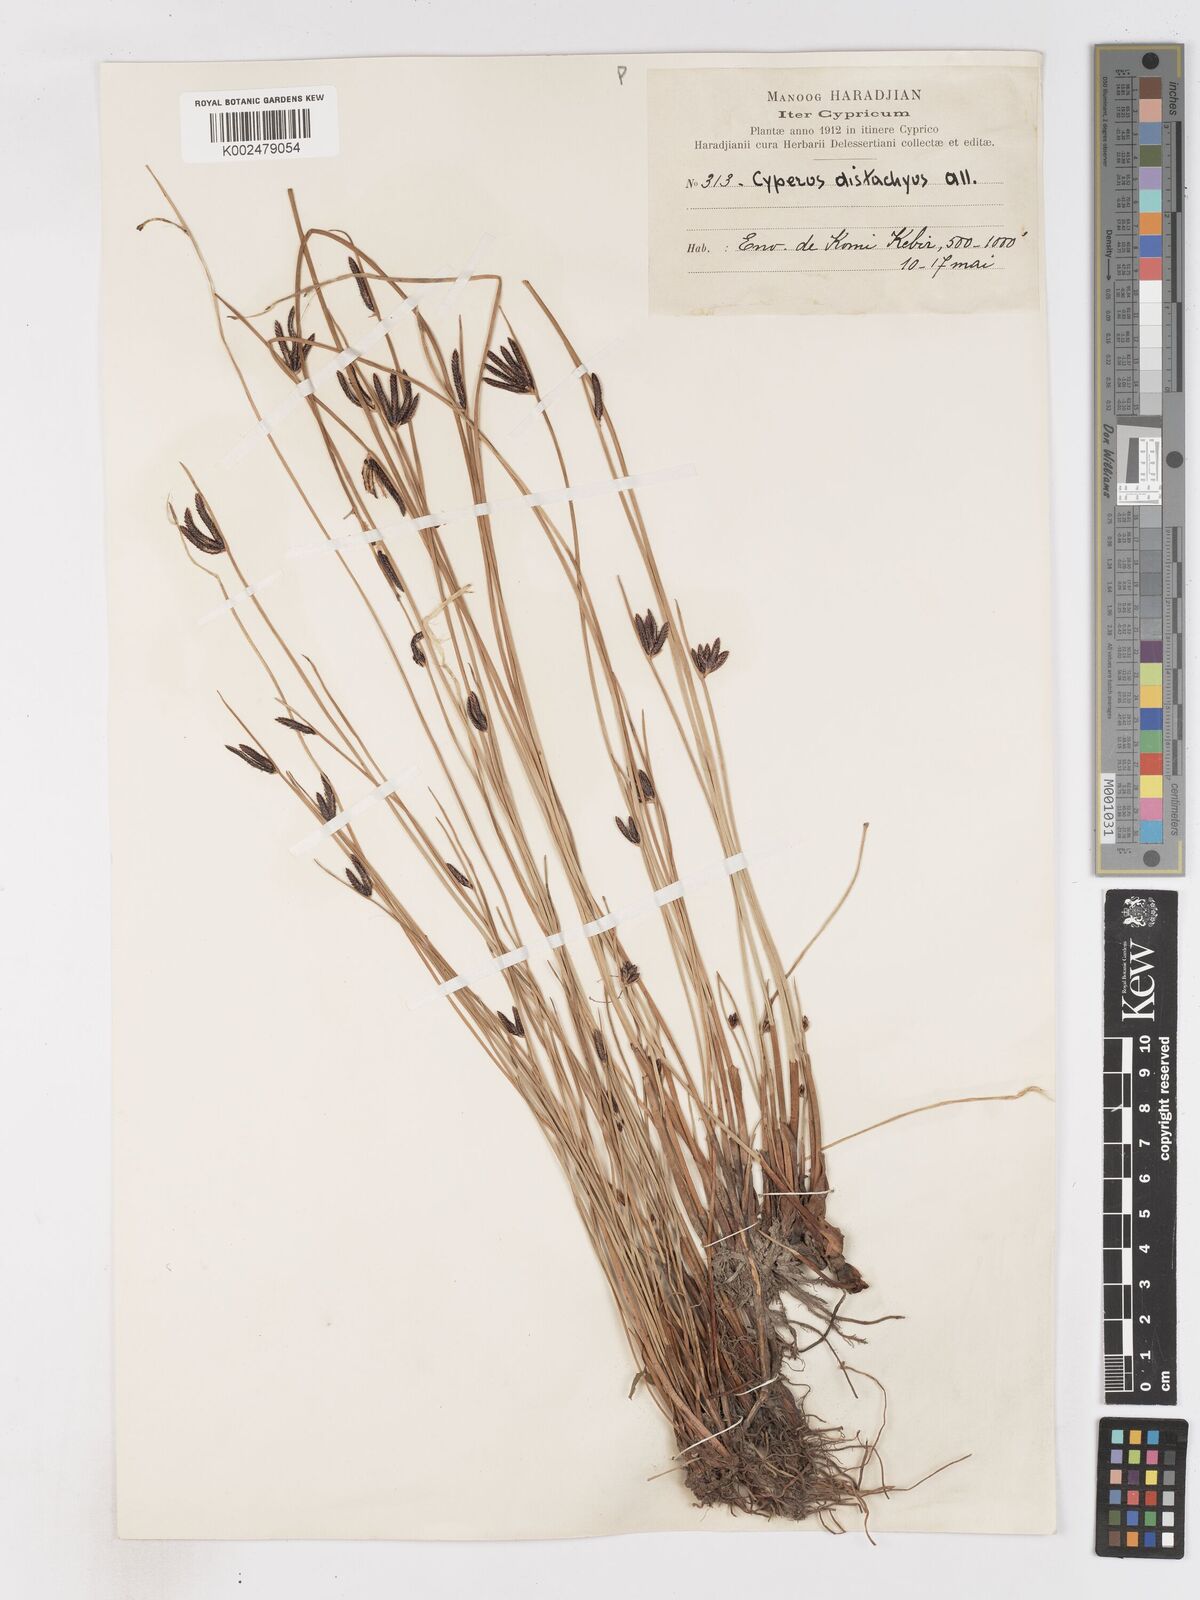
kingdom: Plantae
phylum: Tracheophyta
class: Liliopsida
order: Poales
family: Cyperaceae
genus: Cyperus
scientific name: Cyperus laevigatus
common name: Smooth flat sedge
